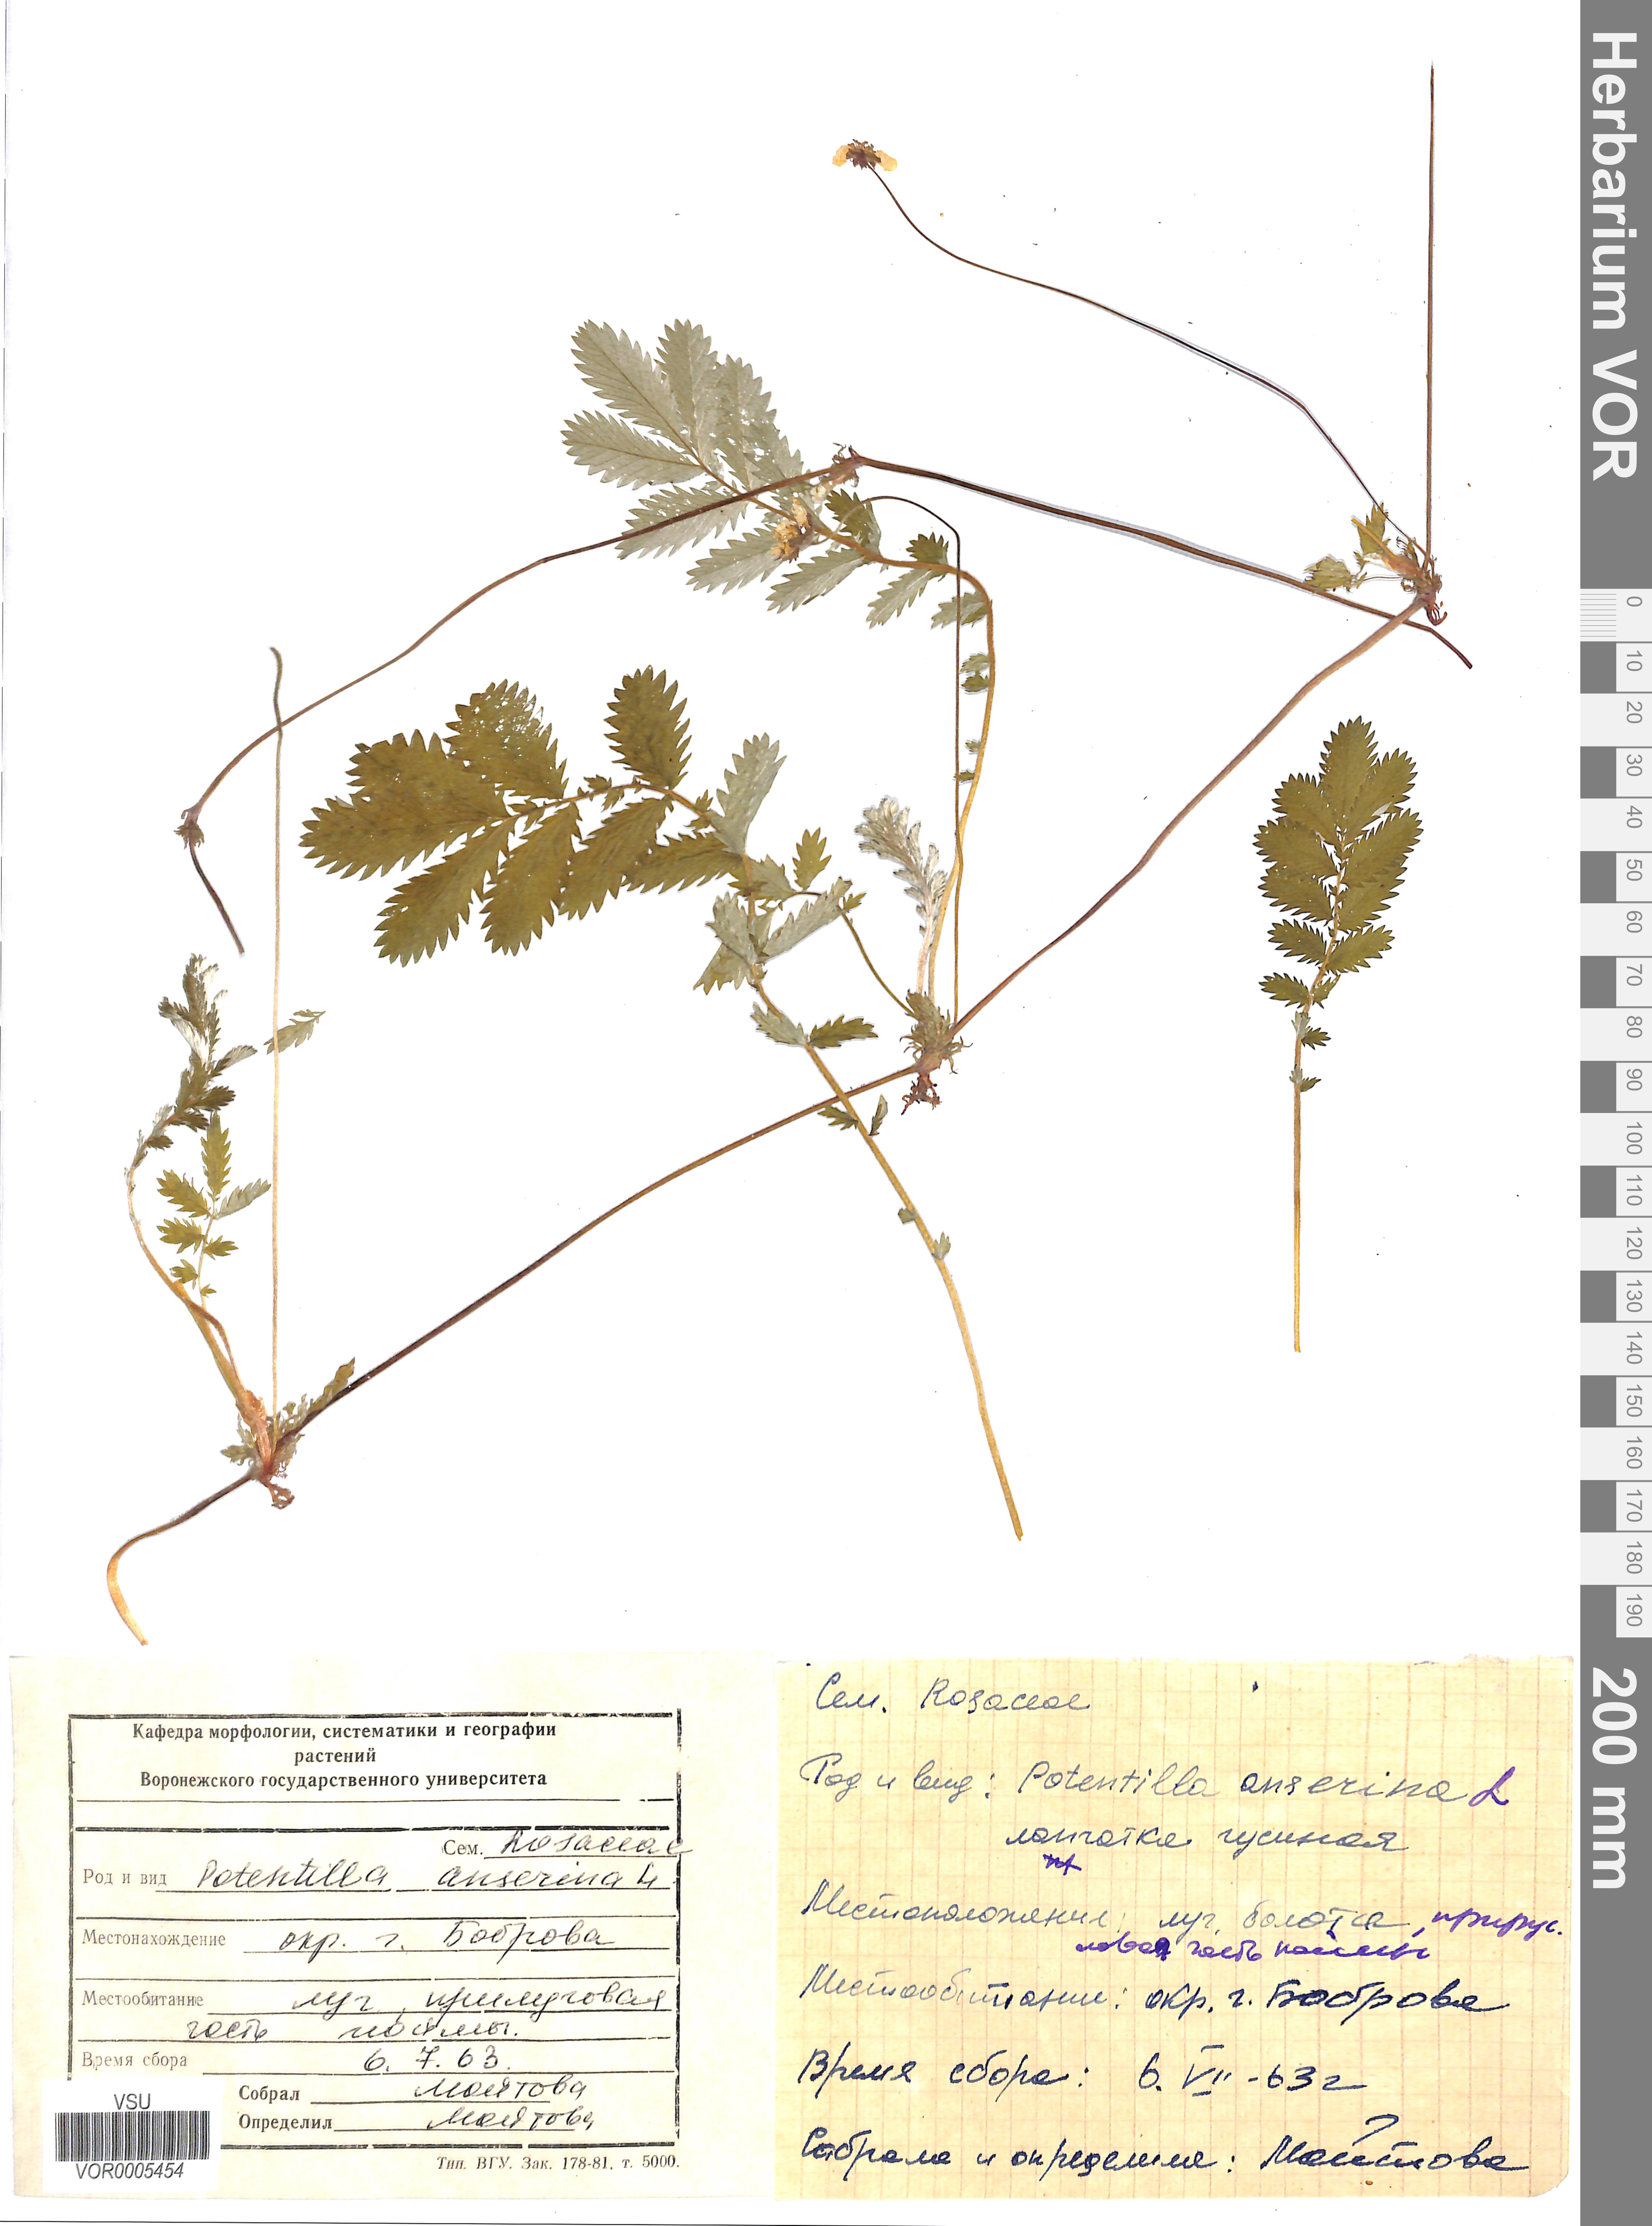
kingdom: Plantae
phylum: Tracheophyta
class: Magnoliopsida
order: Rosales
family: Rosaceae
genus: Argentina
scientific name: Argentina anserina
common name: Common silverweed
